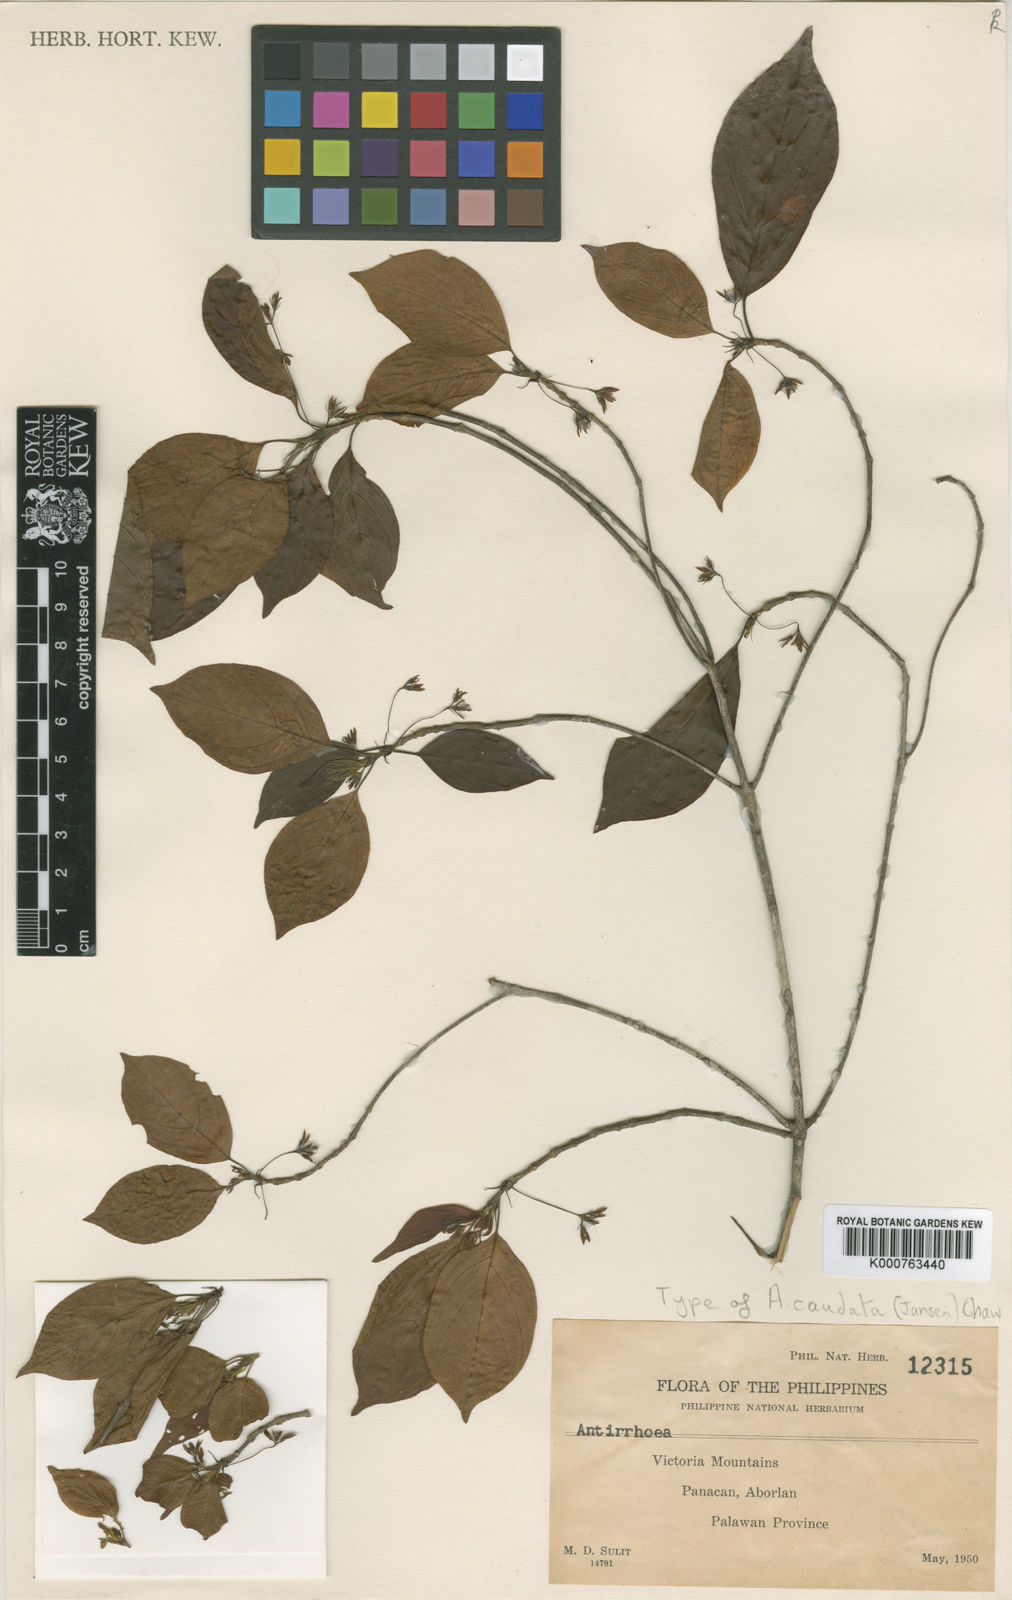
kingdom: Plantae
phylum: Tracheophyta
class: Magnoliopsida
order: Gentianales
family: Rubiaceae
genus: Guettardella
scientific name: Guettardella caudata
